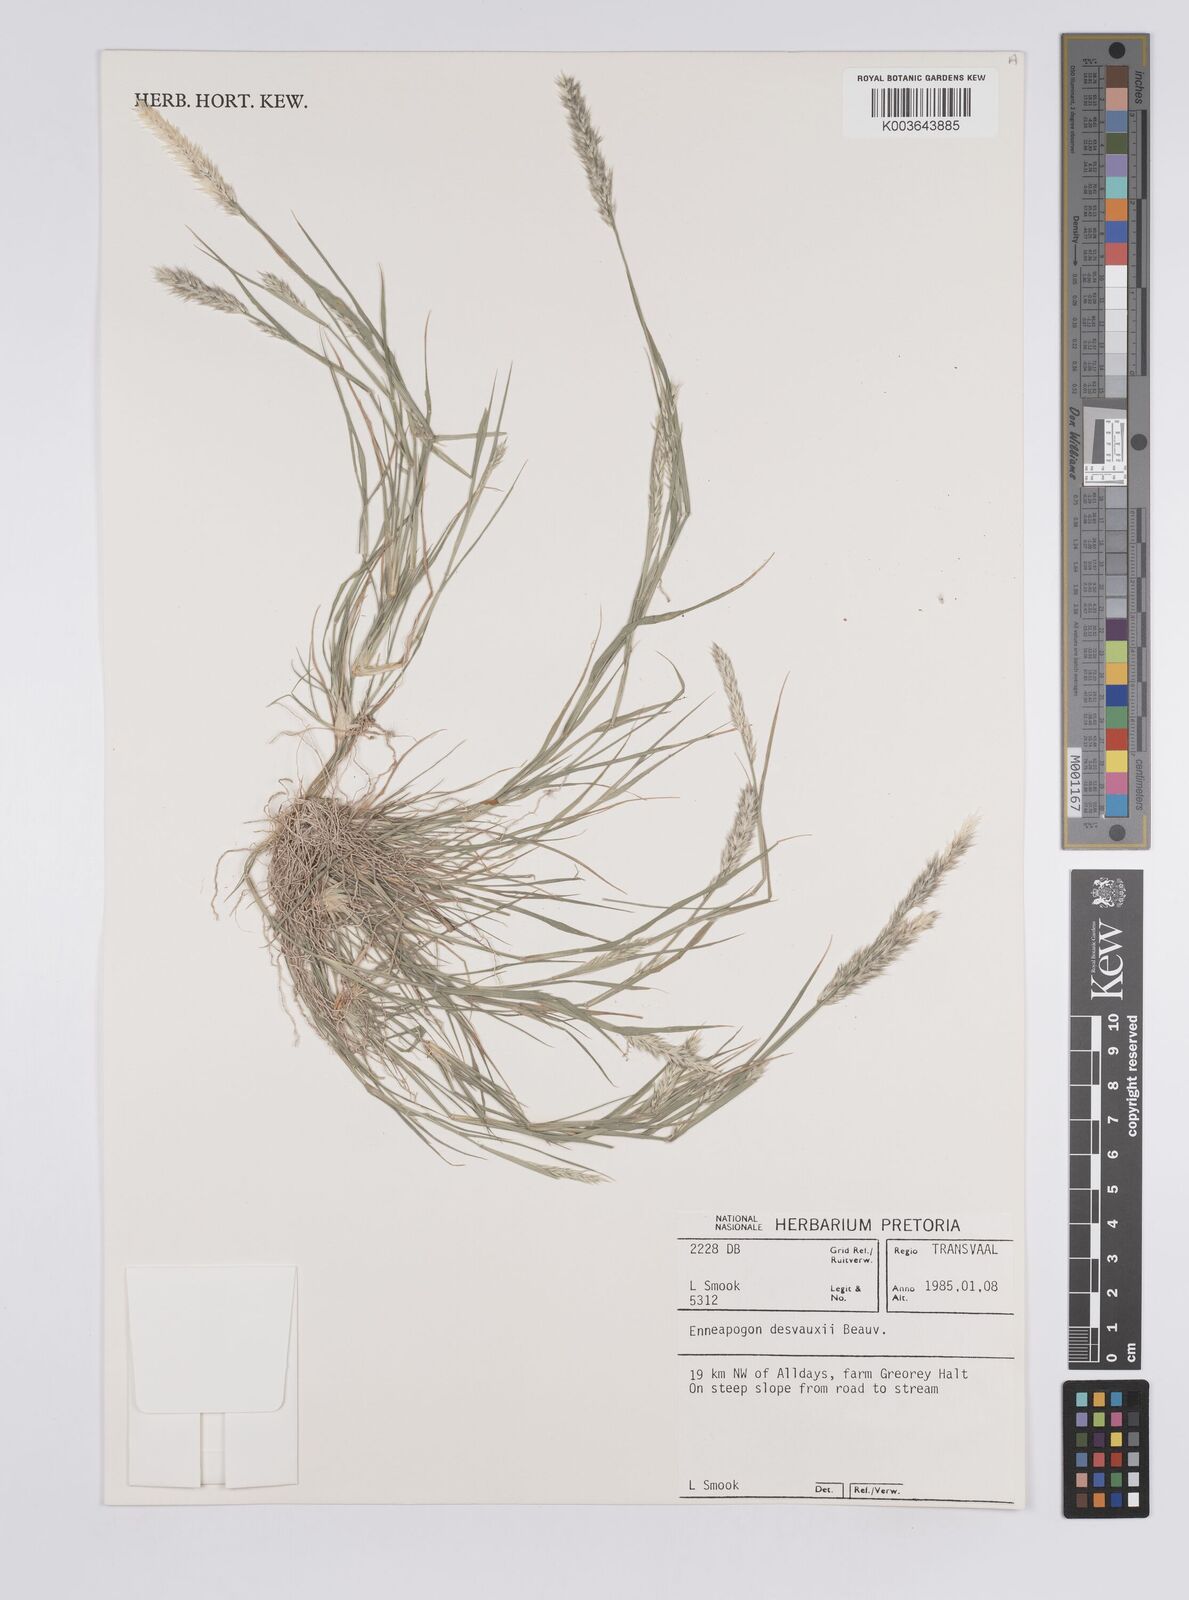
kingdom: Plantae
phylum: Tracheophyta
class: Liliopsida
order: Poales
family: Poaceae
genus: Enneapogon
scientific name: Enneapogon desvauxii
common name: Feather pappus grass
